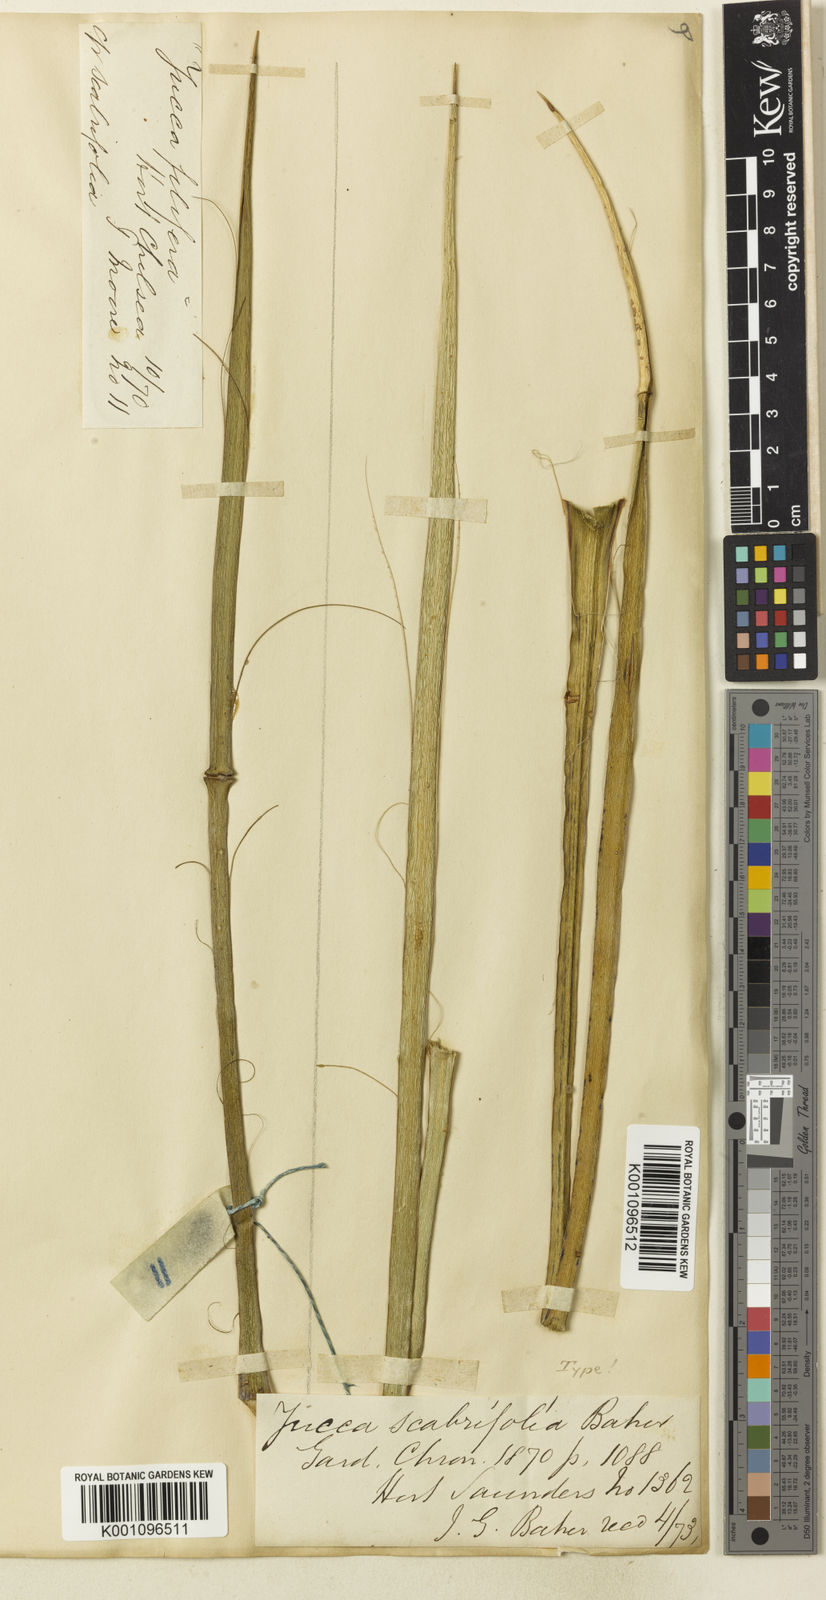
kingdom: Plantae
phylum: Tracheophyta
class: Liliopsida
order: Asparagales
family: Asparagaceae
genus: Yucca
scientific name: Yucca baccata
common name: Banana yucca
